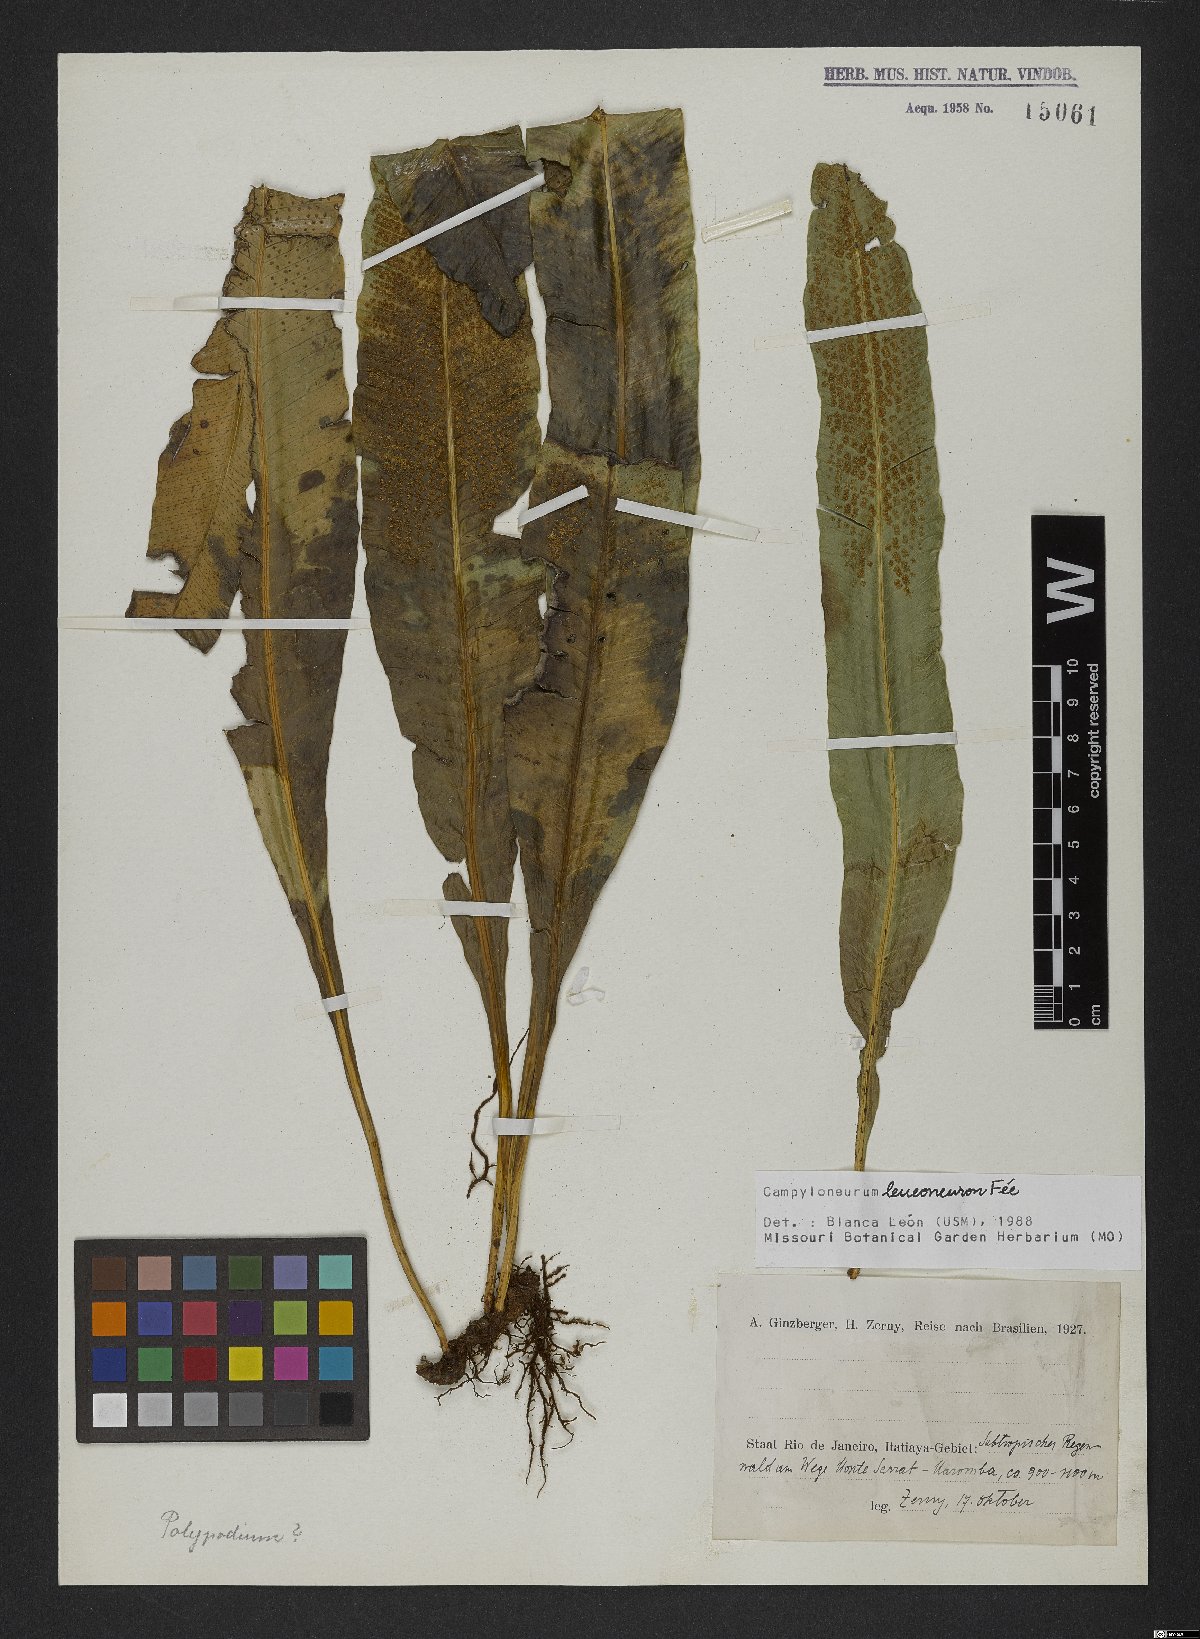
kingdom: Plantae
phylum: Tracheophyta
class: Polypodiopsida
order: Polypodiales
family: Polypodiaceae
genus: Campyloneurum
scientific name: Campyloneurum nitidum
